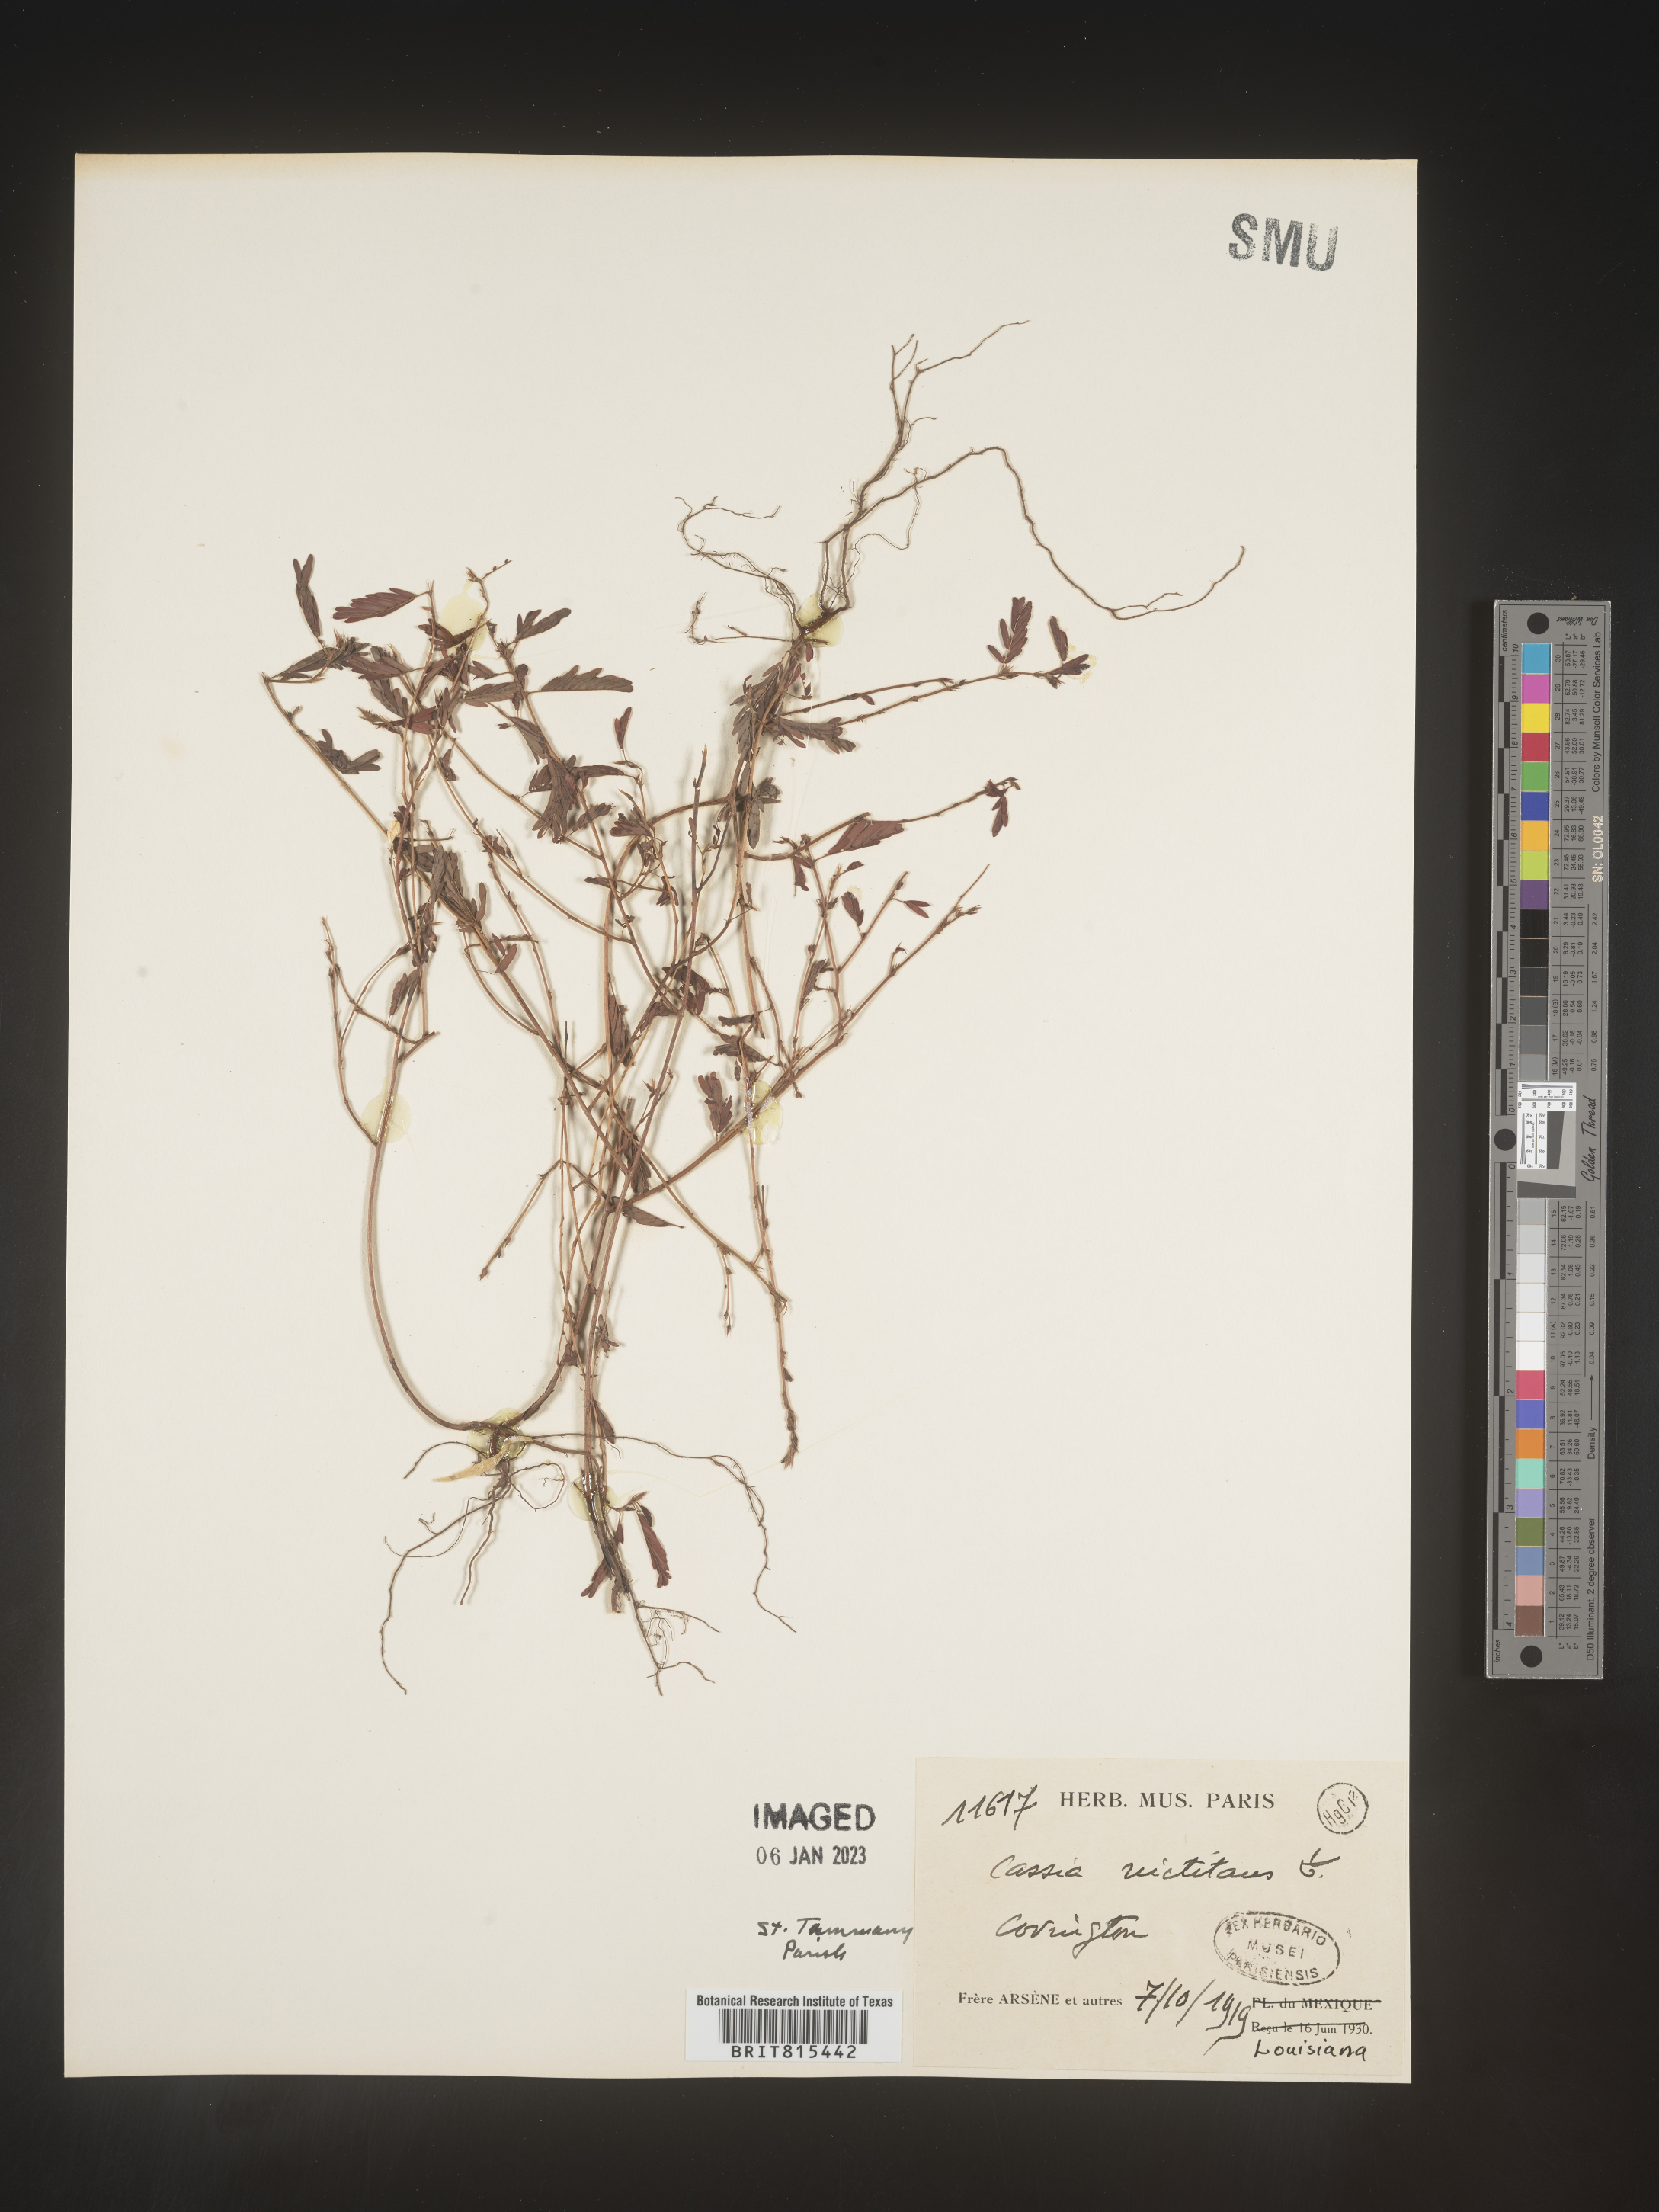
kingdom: Plantae
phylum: Tracheophyta
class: Magnoliopsida
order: Fabales
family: Fabaceae
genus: Chamaecrista
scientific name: Chamaecrista nictitans
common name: Sensitive cassia
